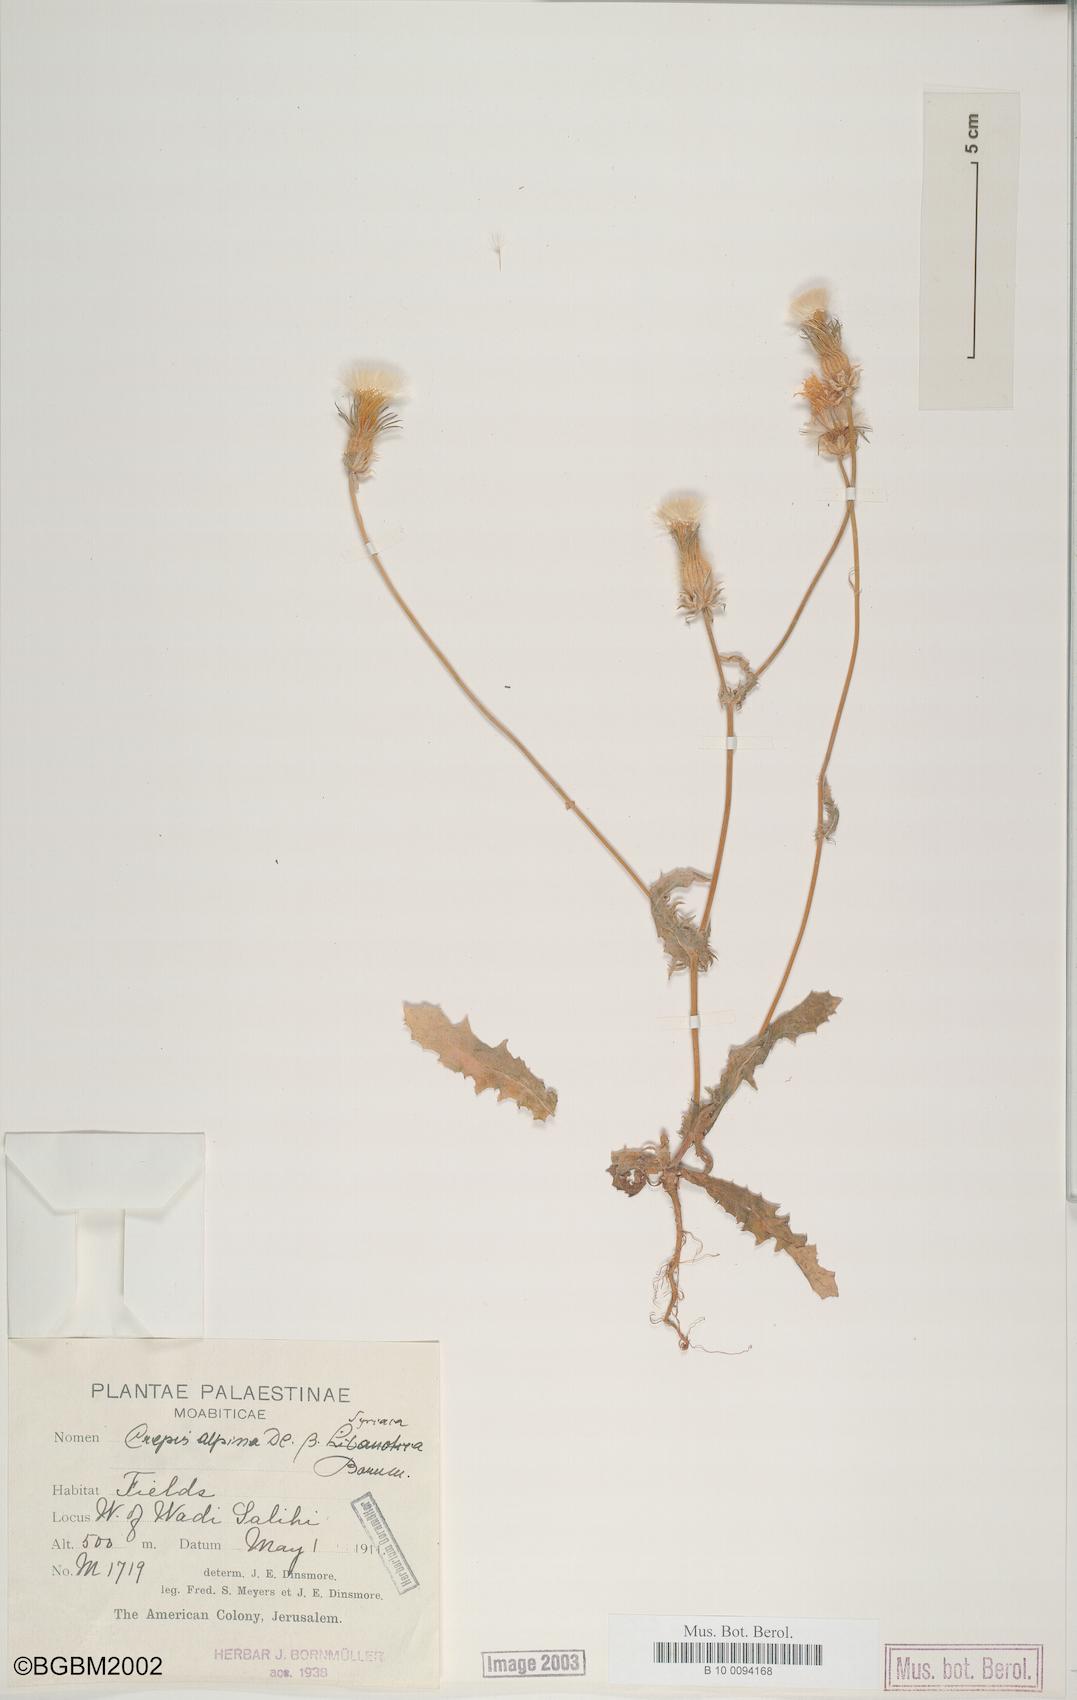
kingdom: Plantae
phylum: Tracheophyta
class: Magnoliopsida
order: Asterales
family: Asteraceae
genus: Crepis
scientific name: Crepis syriaca
